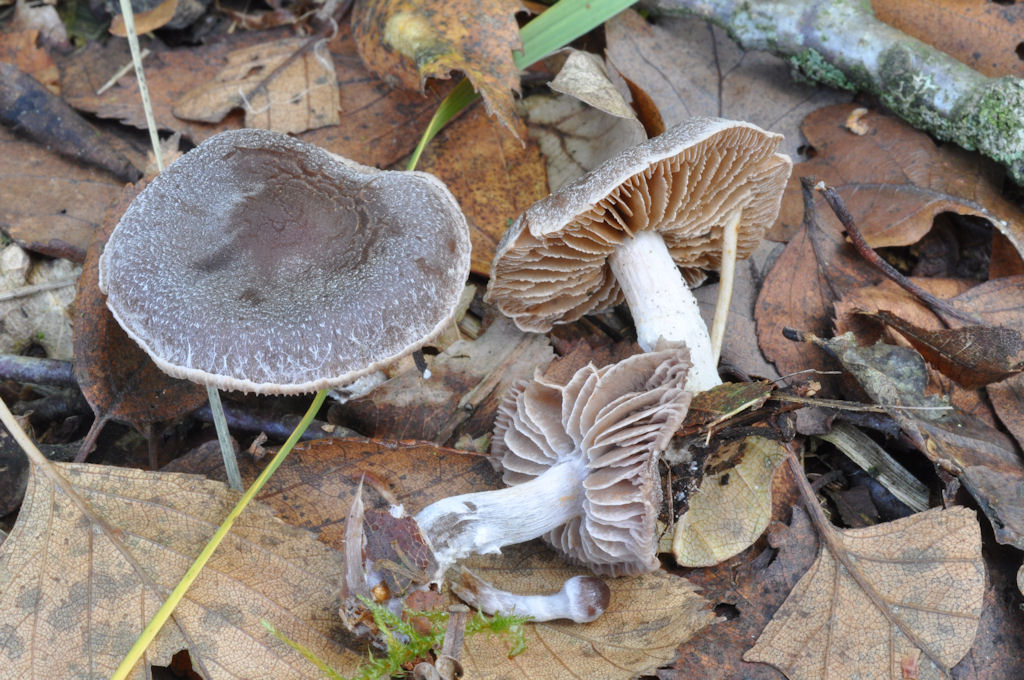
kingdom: Fungi
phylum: Basidiomycota
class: Agaricomycetes
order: Agaricales
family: Cortinariaceae
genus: Cortinarius
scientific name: Cortinarius
